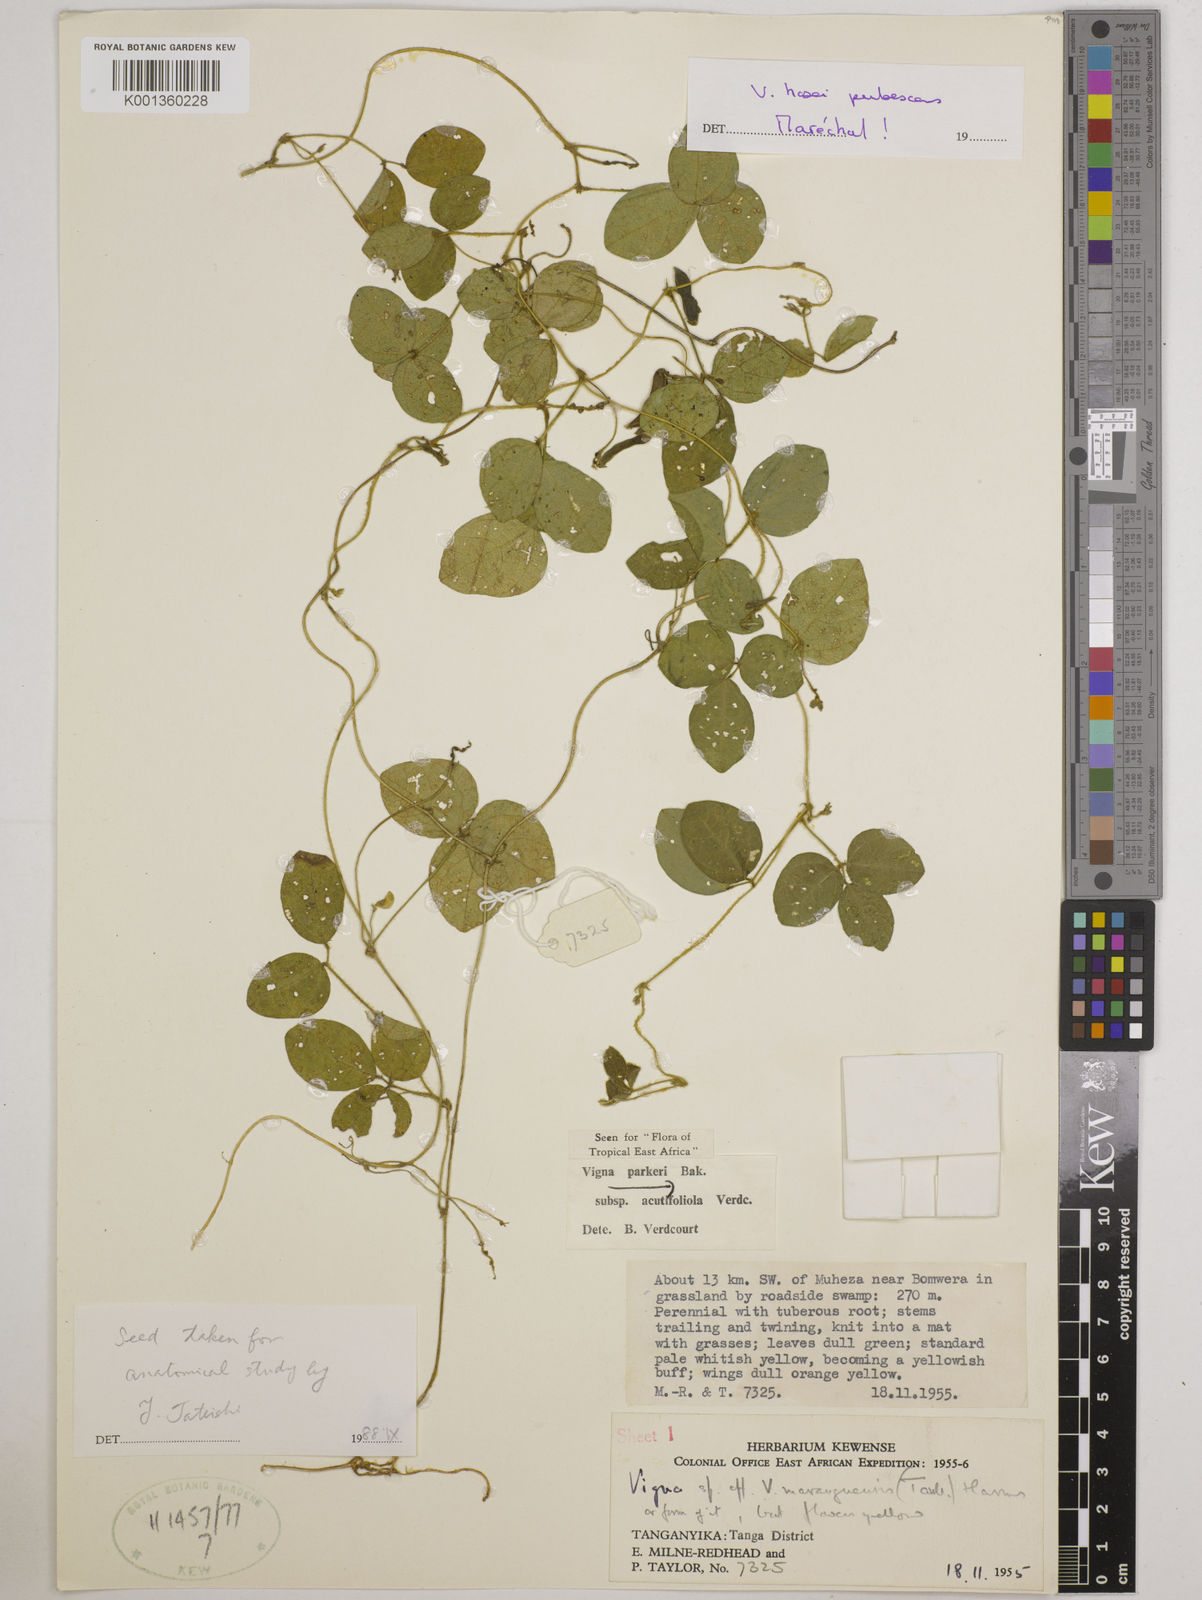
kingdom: Plantae
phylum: Tracheophyta
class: Magnoliopsida
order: Fabales
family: Fabaceae
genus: Vigna
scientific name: Vigna hosei
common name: Sarawak-bean
